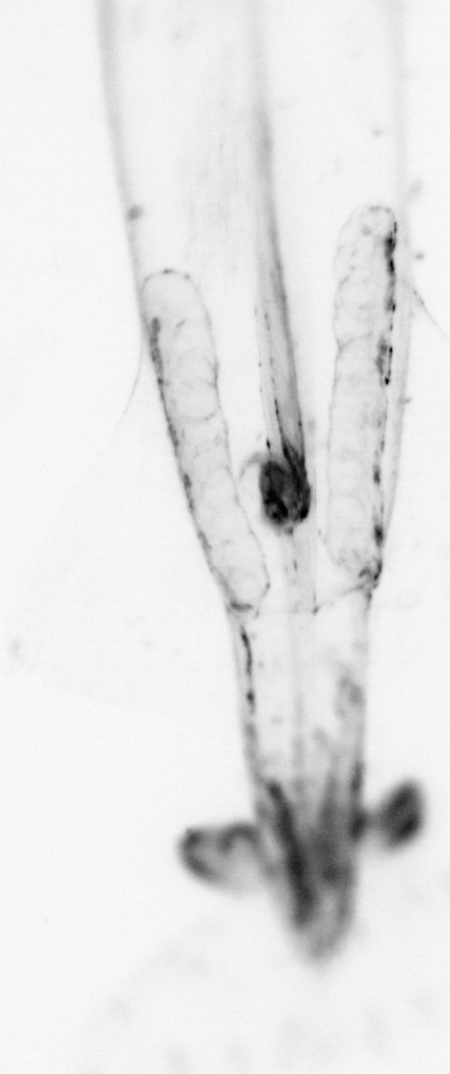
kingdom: Animalia
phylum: Chaetognatha
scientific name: Chaetognatha
